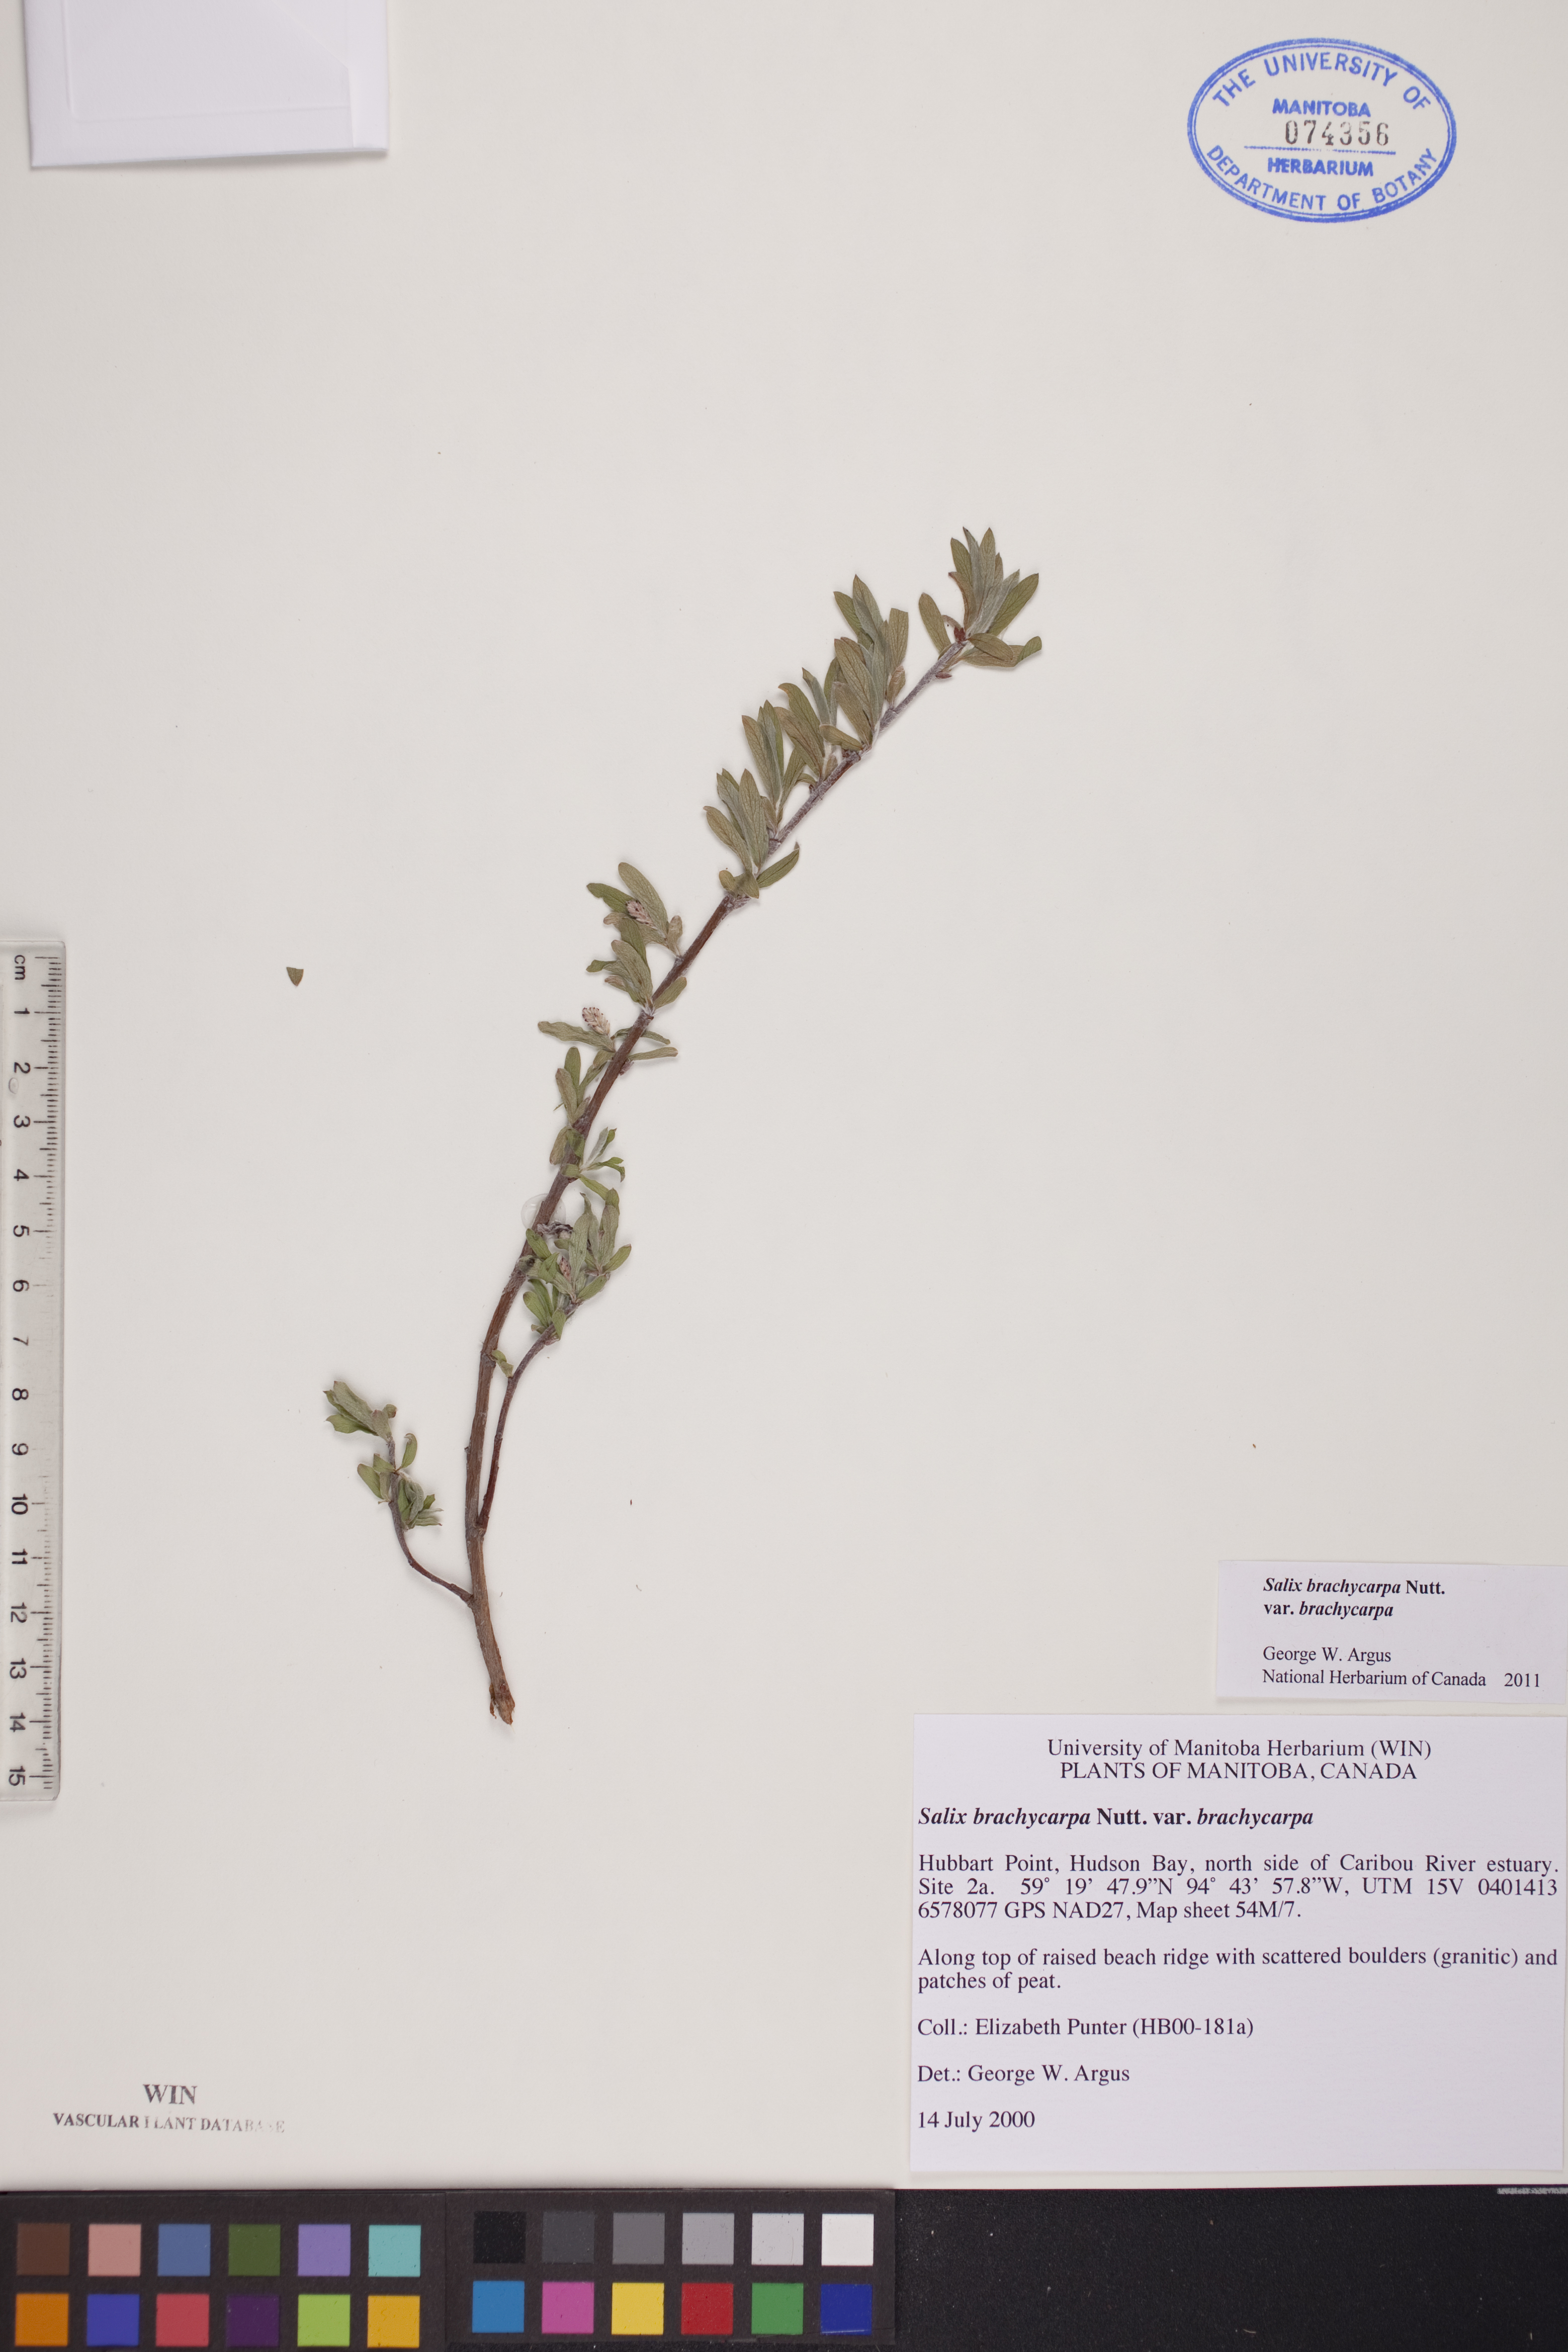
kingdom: Plantae
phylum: Tracheophyta
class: Magnoliopsida
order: Malpighiales
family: Salicaceae
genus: Salix
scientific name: Salix brachycarpa
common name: Barren-ground willow
